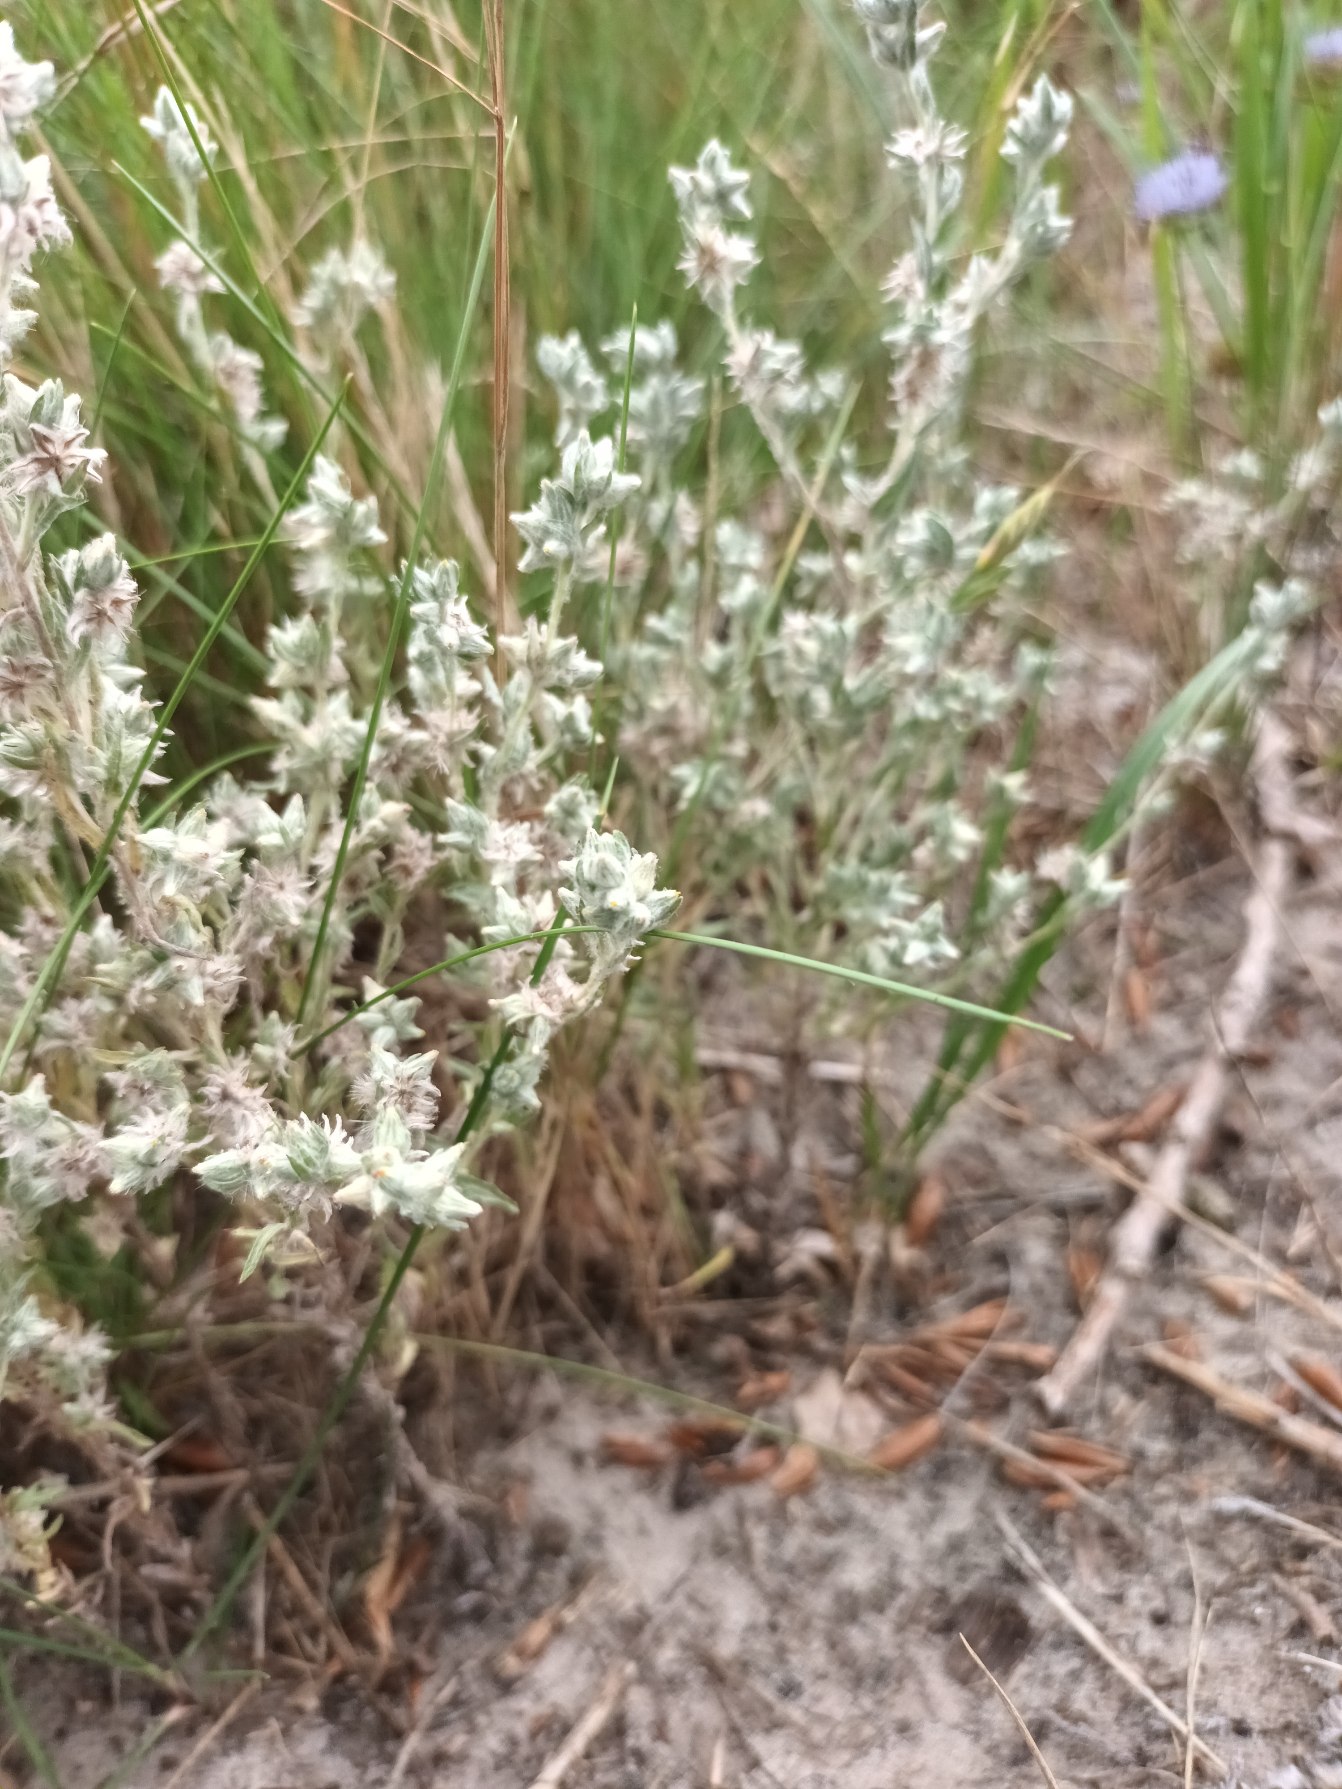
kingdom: Plantae
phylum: Tracheophyta
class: Magnoliopsida
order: Asterales
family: Asteraceae
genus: Filago
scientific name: Filago arvensis
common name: Ager-museurt
